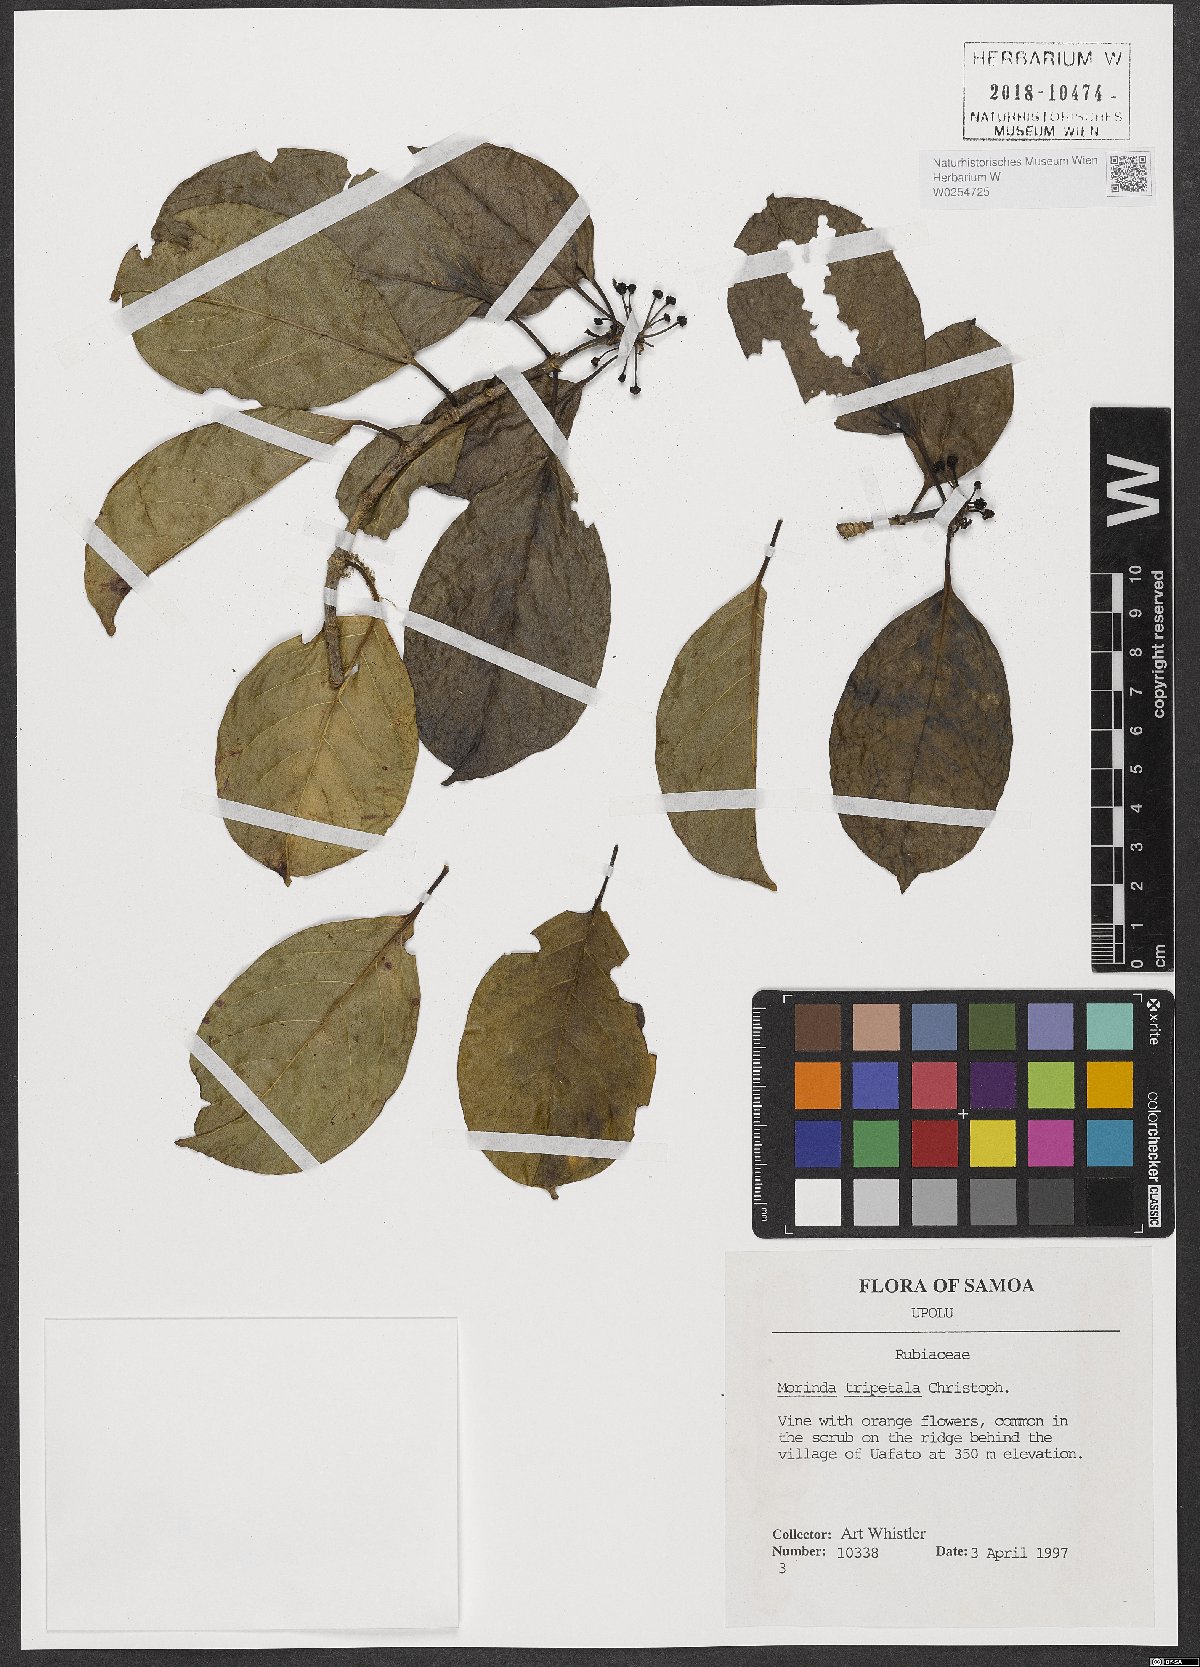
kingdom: Plantae
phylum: Tracheophyta
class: Magnoliopsida
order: Gentianales
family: Rubiaceae
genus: Gynochthodes
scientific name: Gynochthodes bucidifolia
